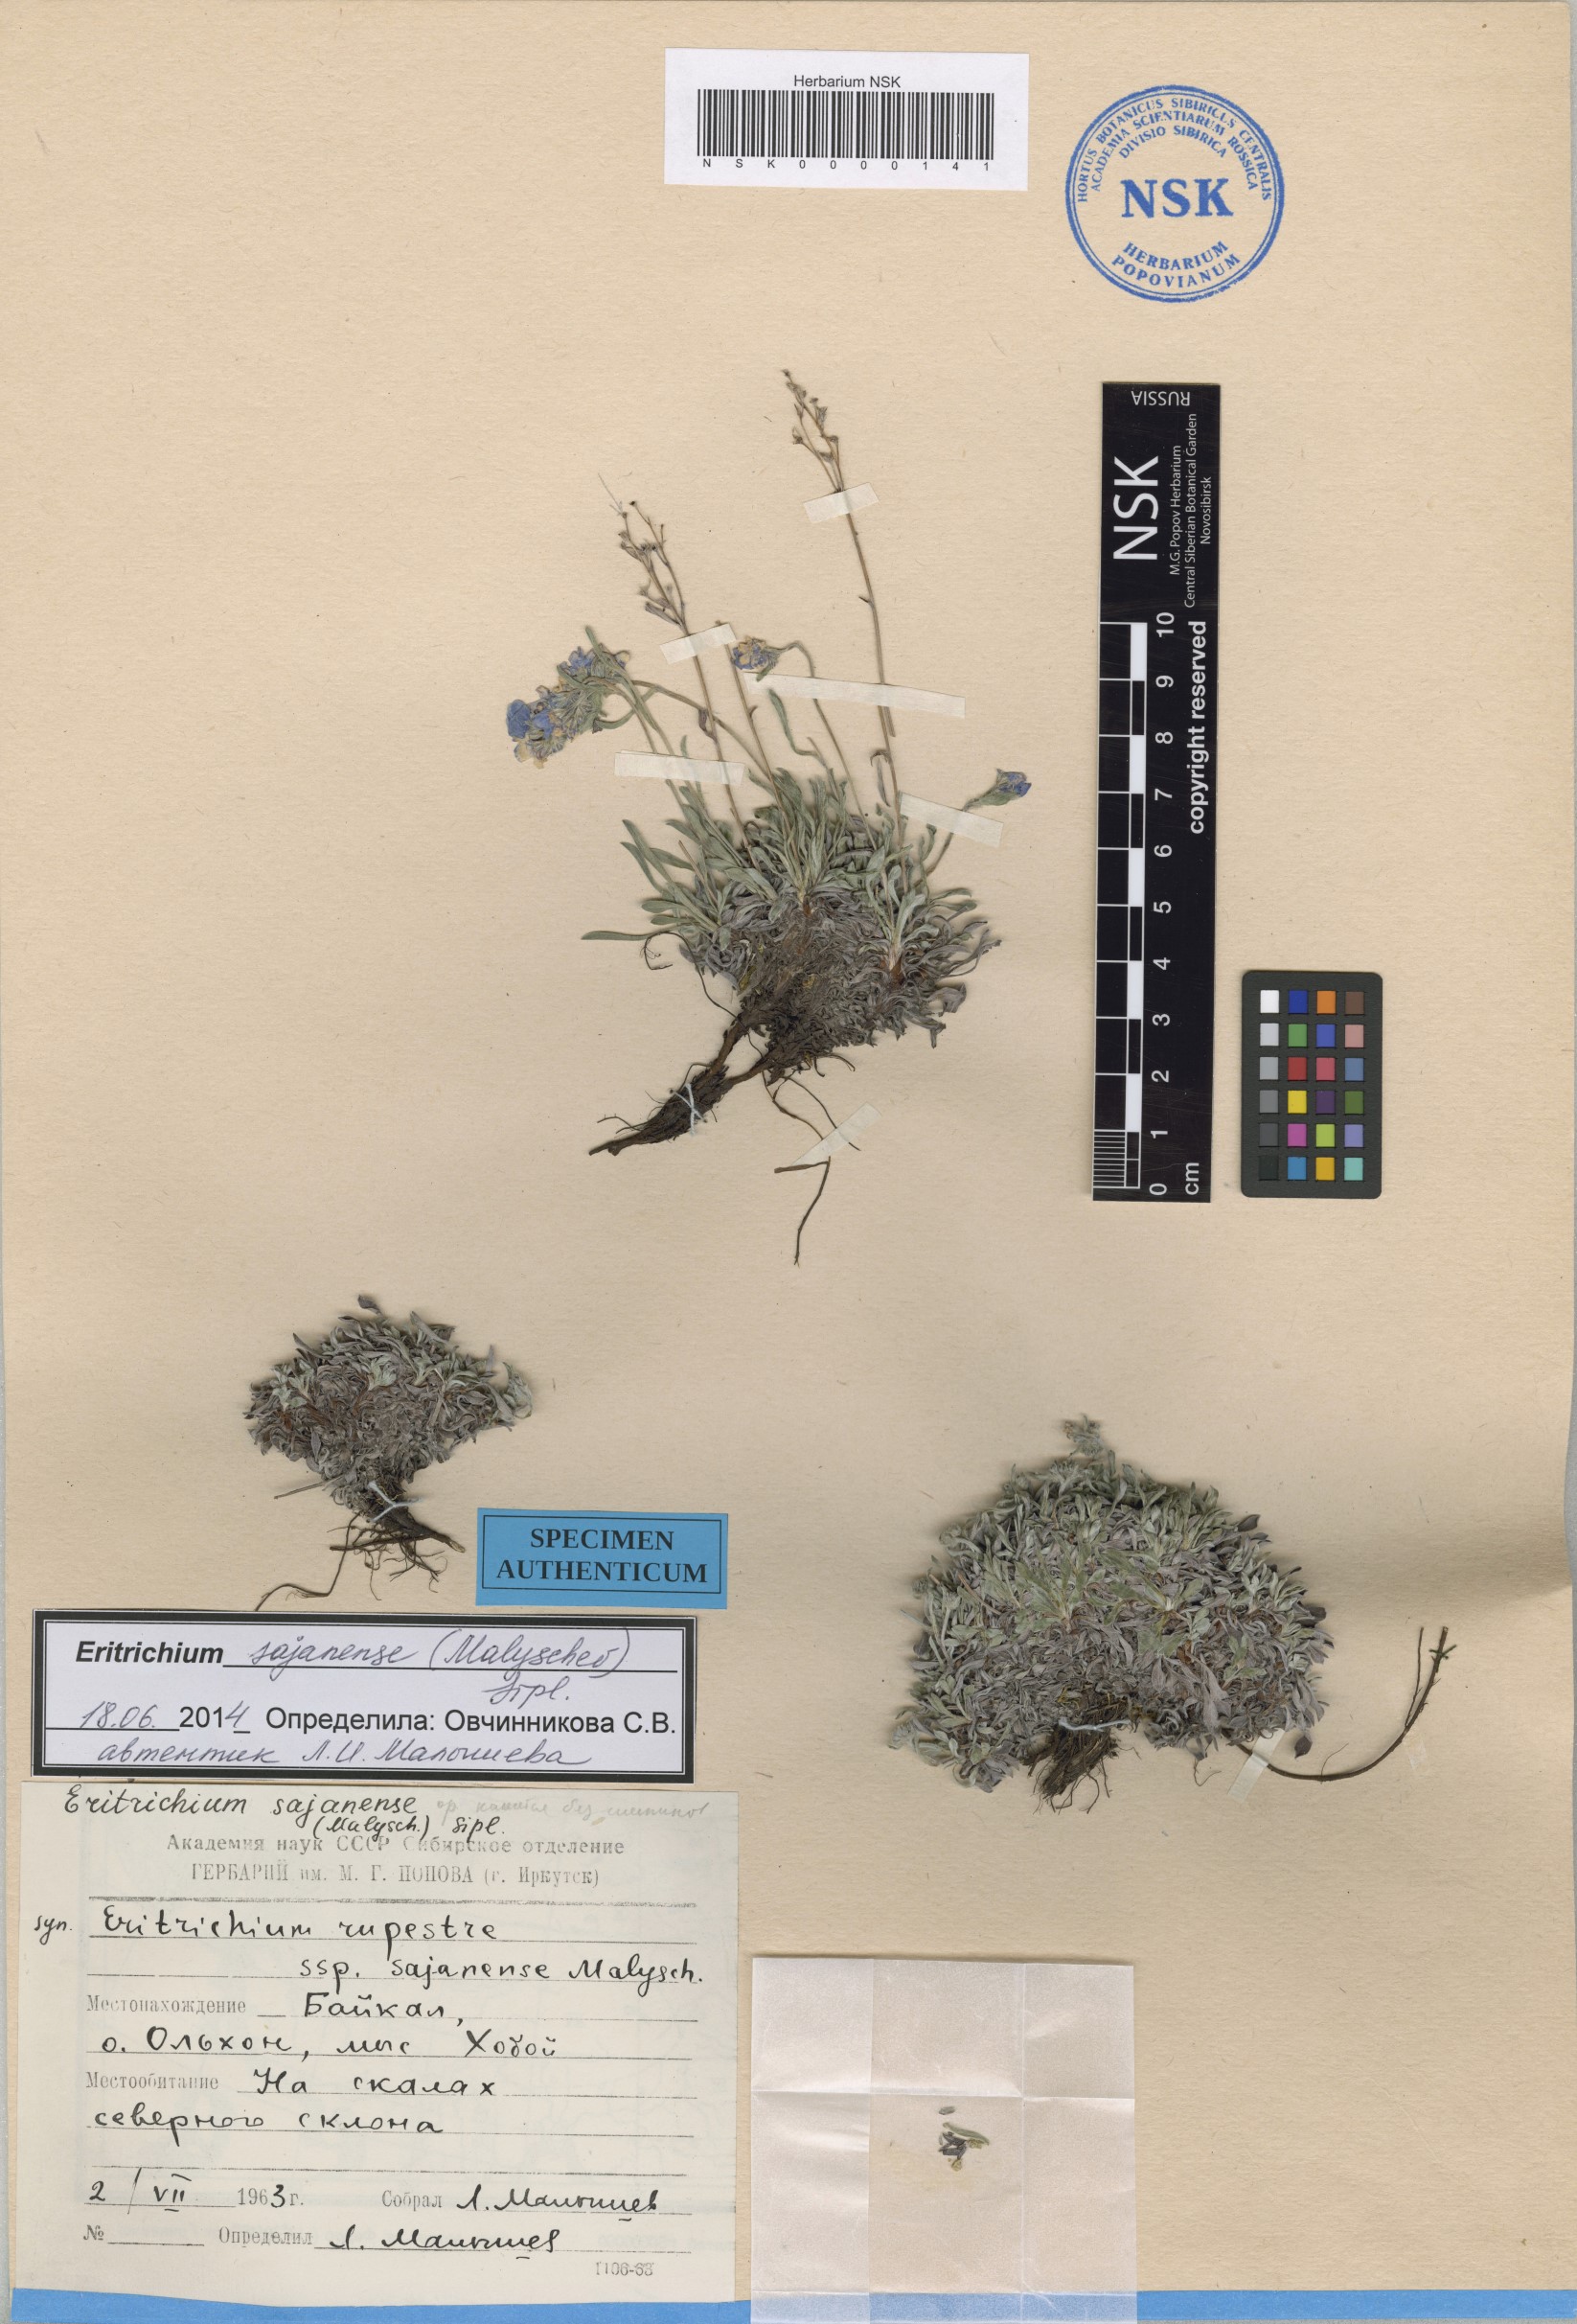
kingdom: Plantae
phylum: Tracheophyta
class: Magnoliopsida
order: Boraginales
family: Boraginaceae
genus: Eritrichium
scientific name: Eritrichium sajanense
